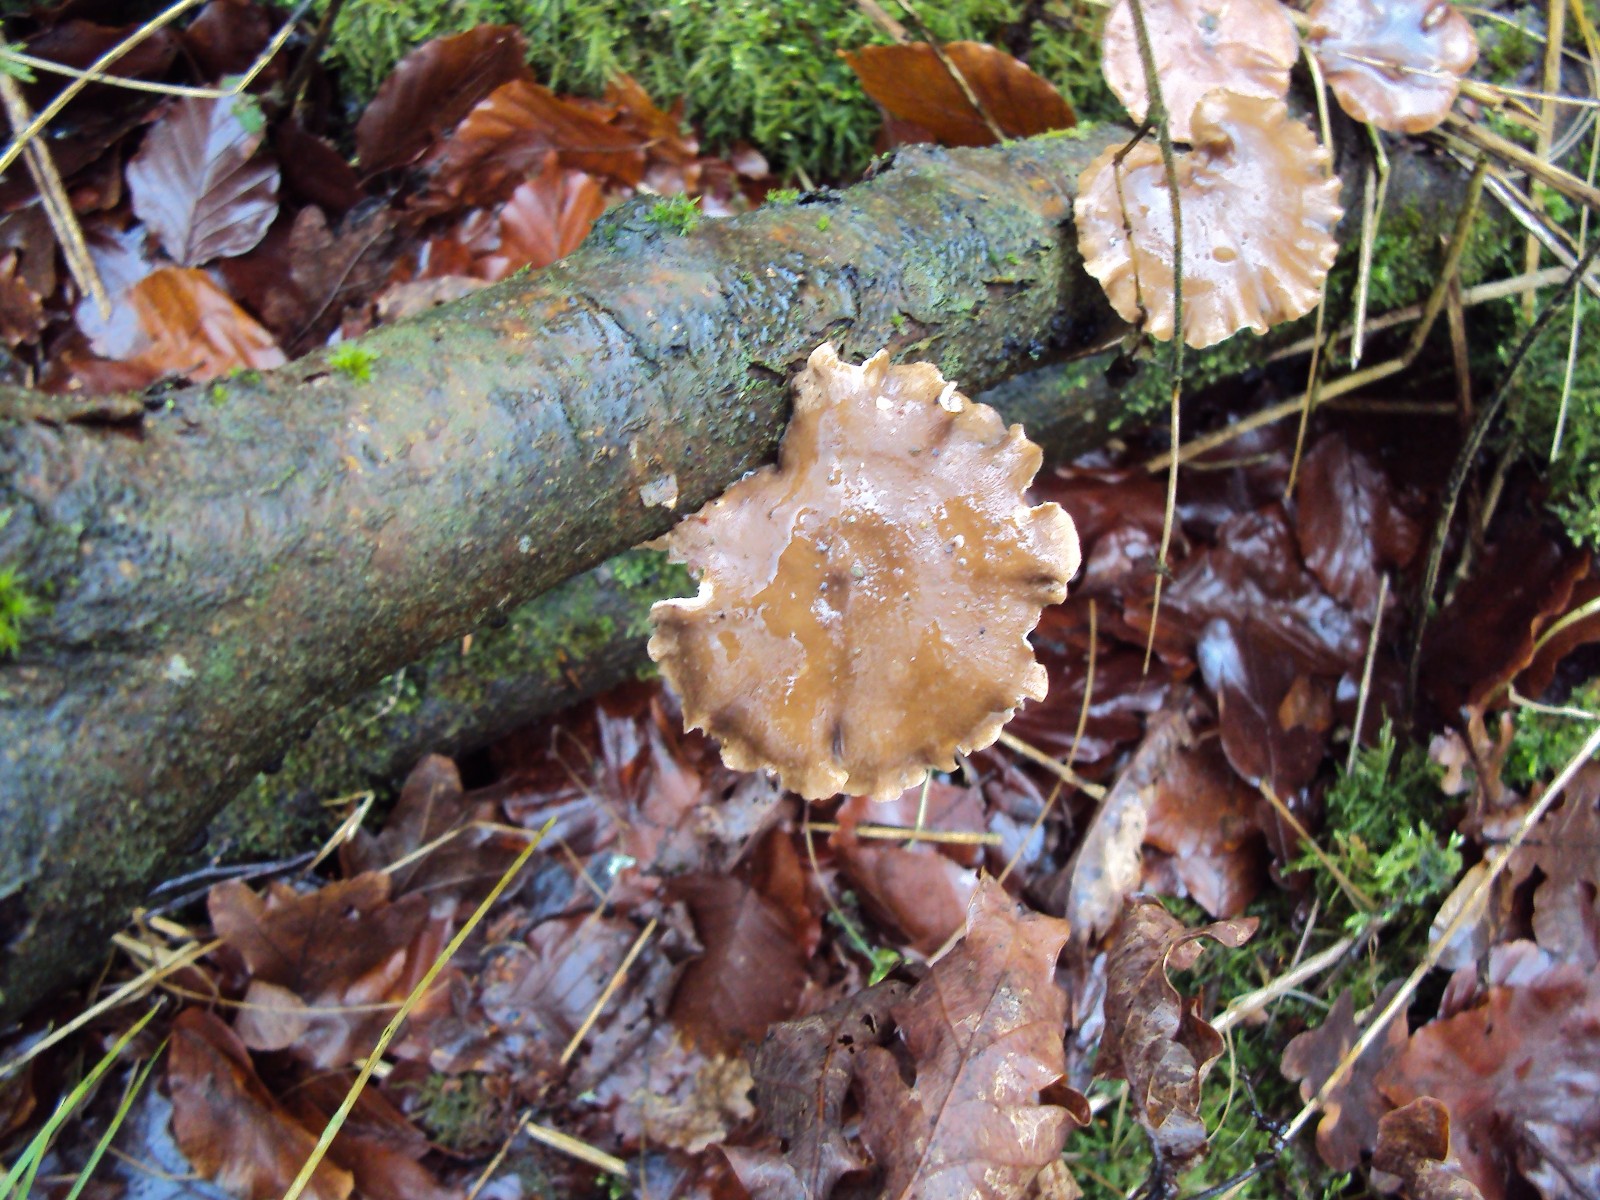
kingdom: Fungi
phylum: Basidiomycota
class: Agaricomycetes
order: Polyporales
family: Polyporaceae
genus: Lentinus
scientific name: Lentinus brumalis
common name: vinter-stilkporesvamp
